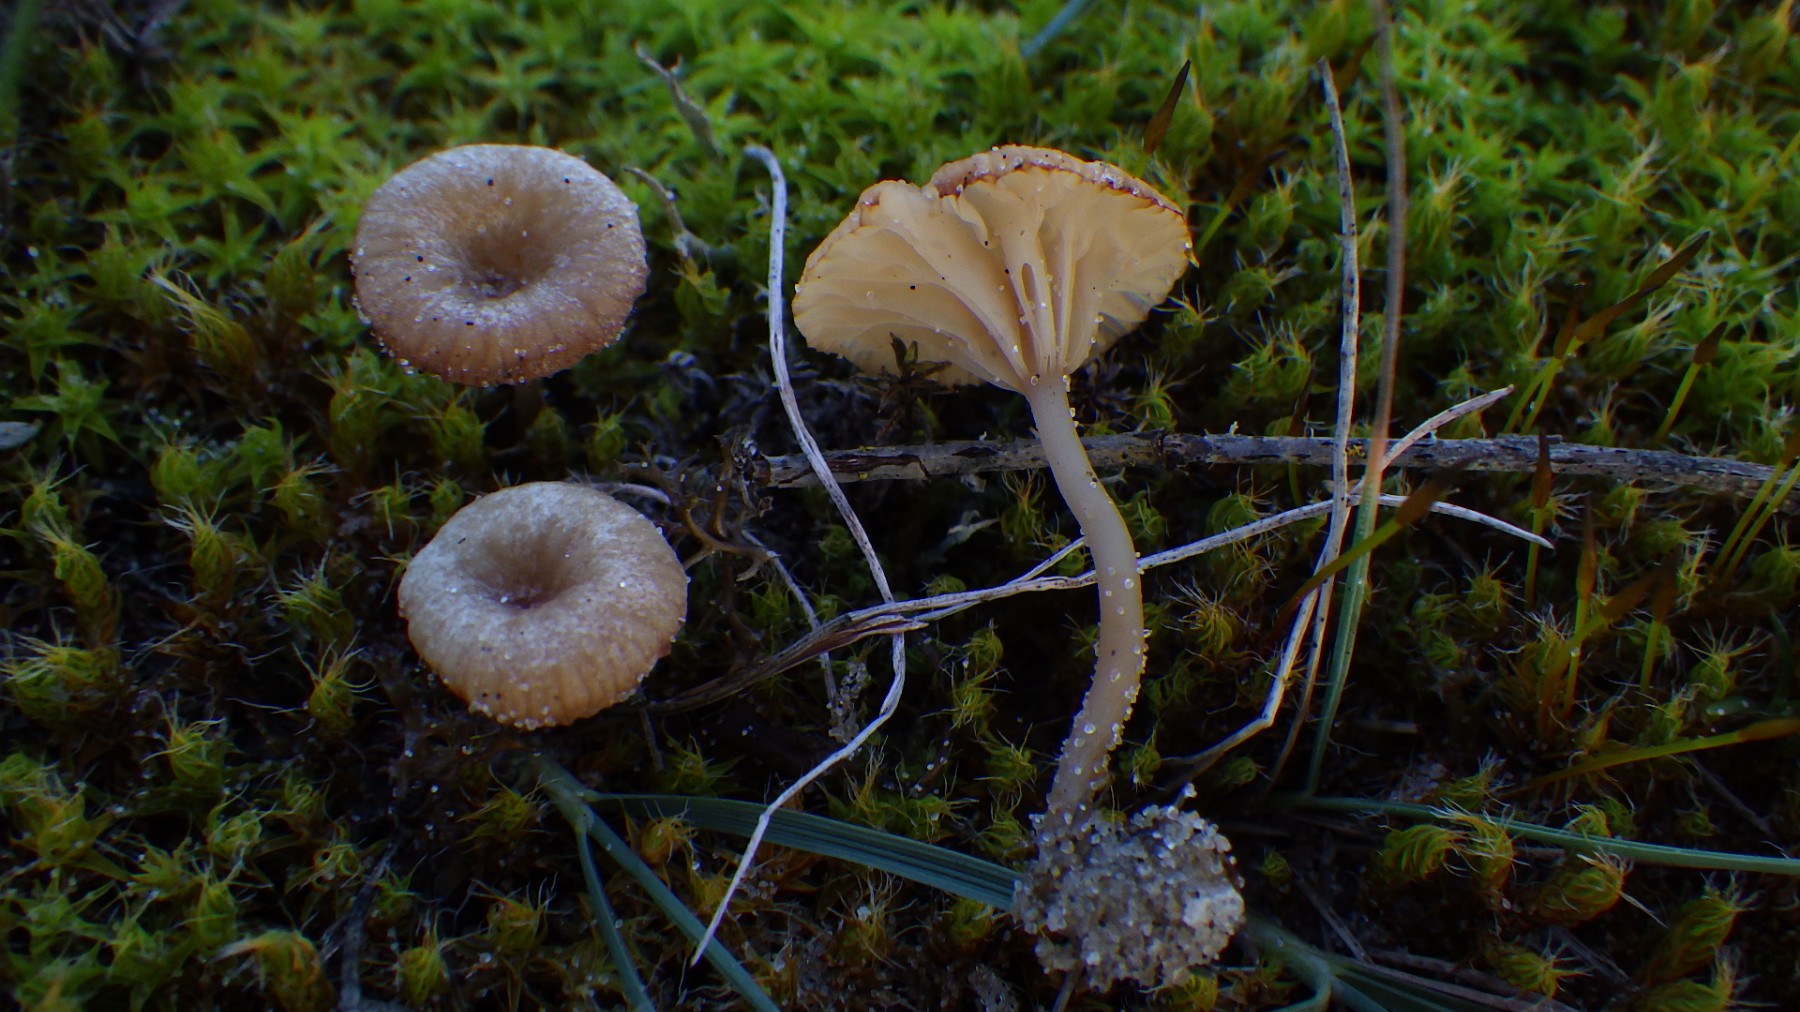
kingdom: Fungi
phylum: Basidiomycota
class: Agaricomycetes
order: Agaricales
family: Tricholomataceae
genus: Omphalina
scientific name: Omphalina
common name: navlehat
